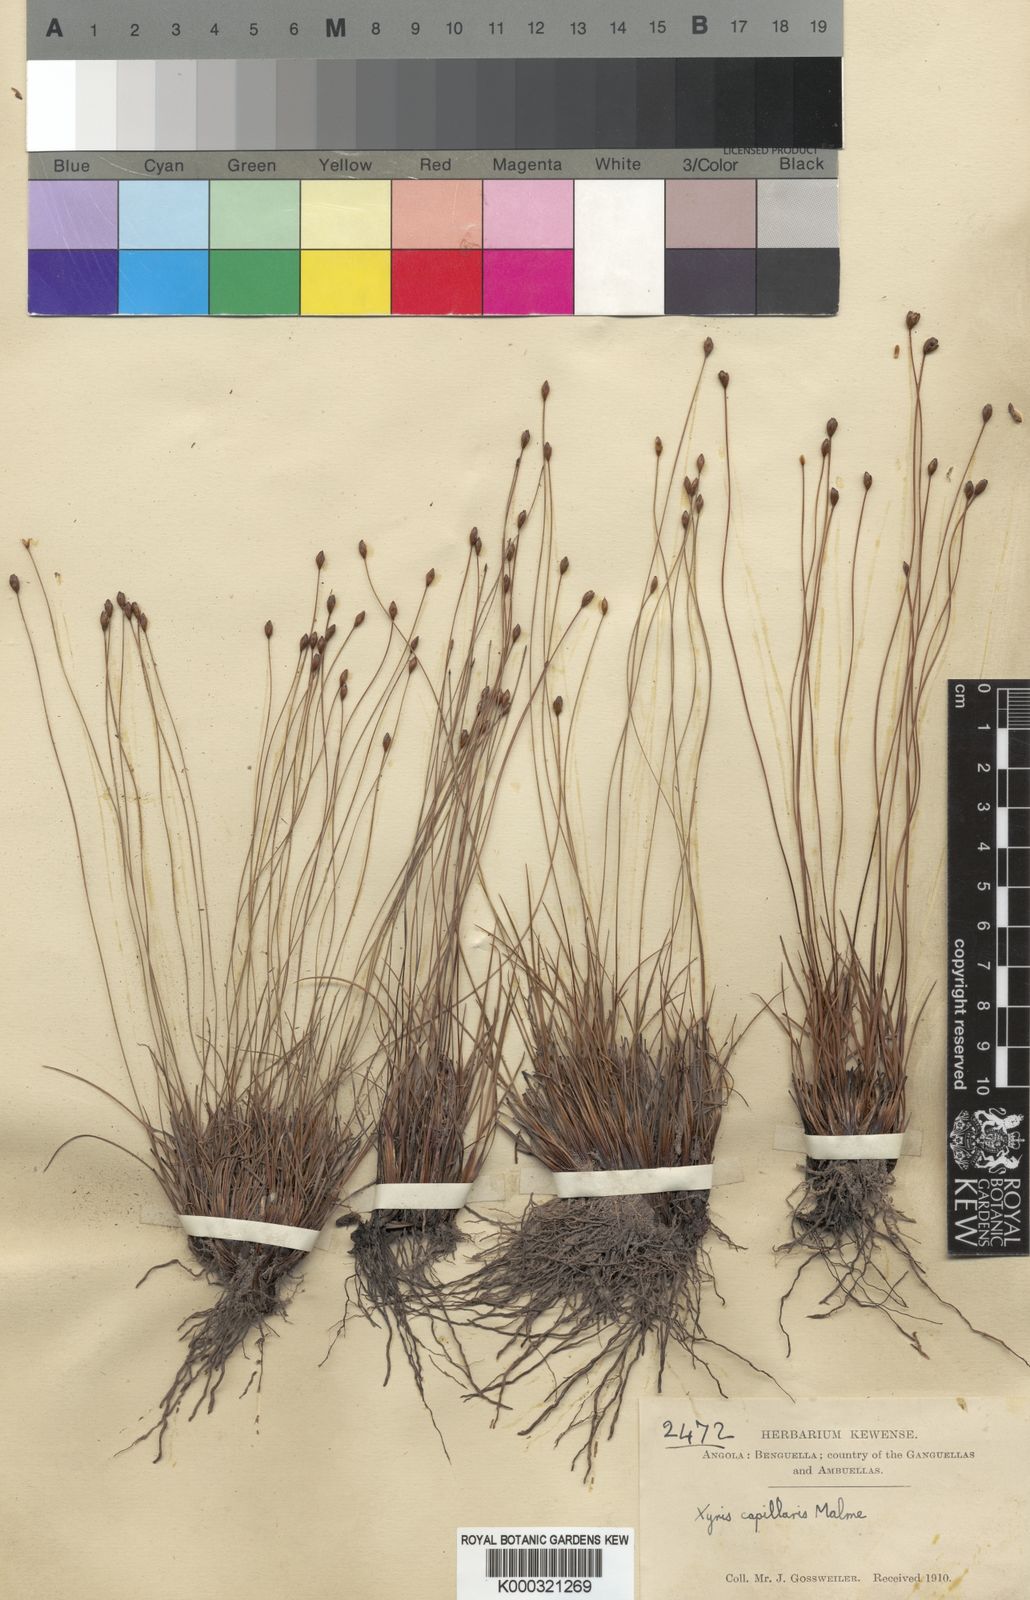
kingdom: Plantae
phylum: Tracheophyta
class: Liliopsida
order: Poales
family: Xyridaceae
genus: Xyris
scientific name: Xyris capillaris
